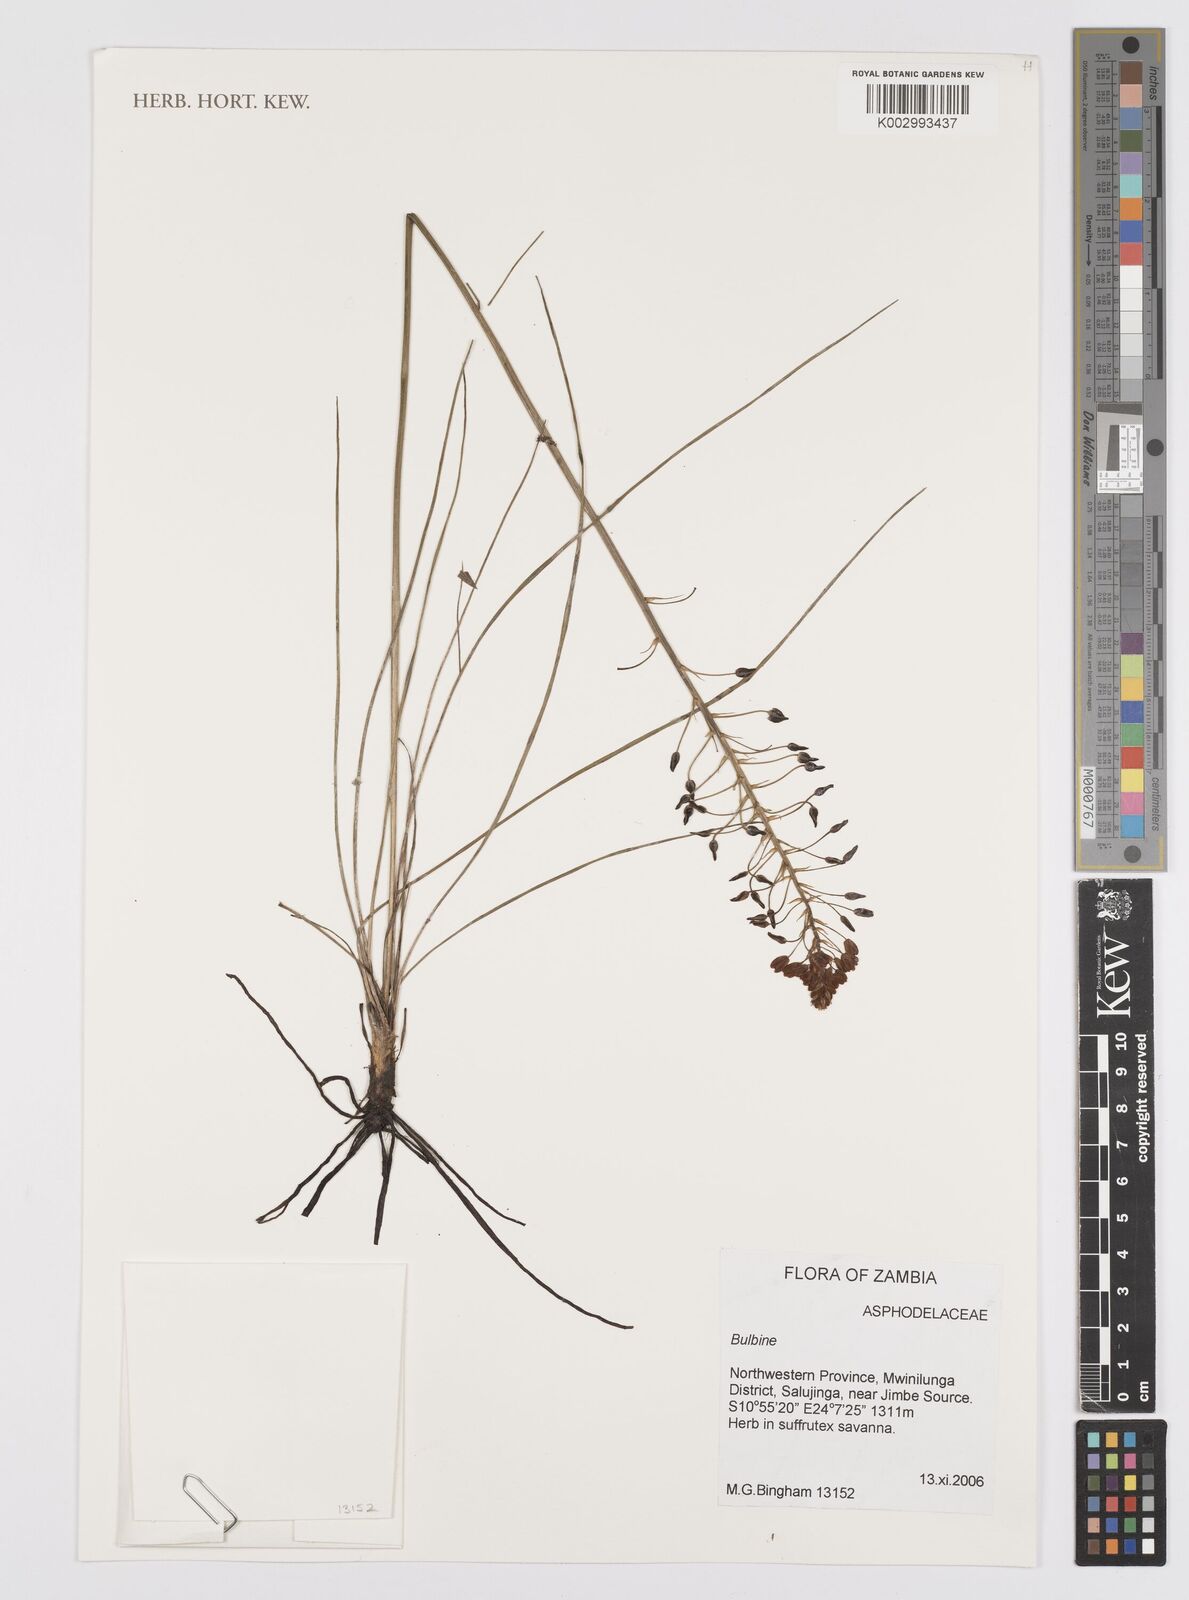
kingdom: Plantae
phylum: Tracheophyta
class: Liliopsida
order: Asparagales
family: Asphodelaceae
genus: Bulbine
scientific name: Bulbine
